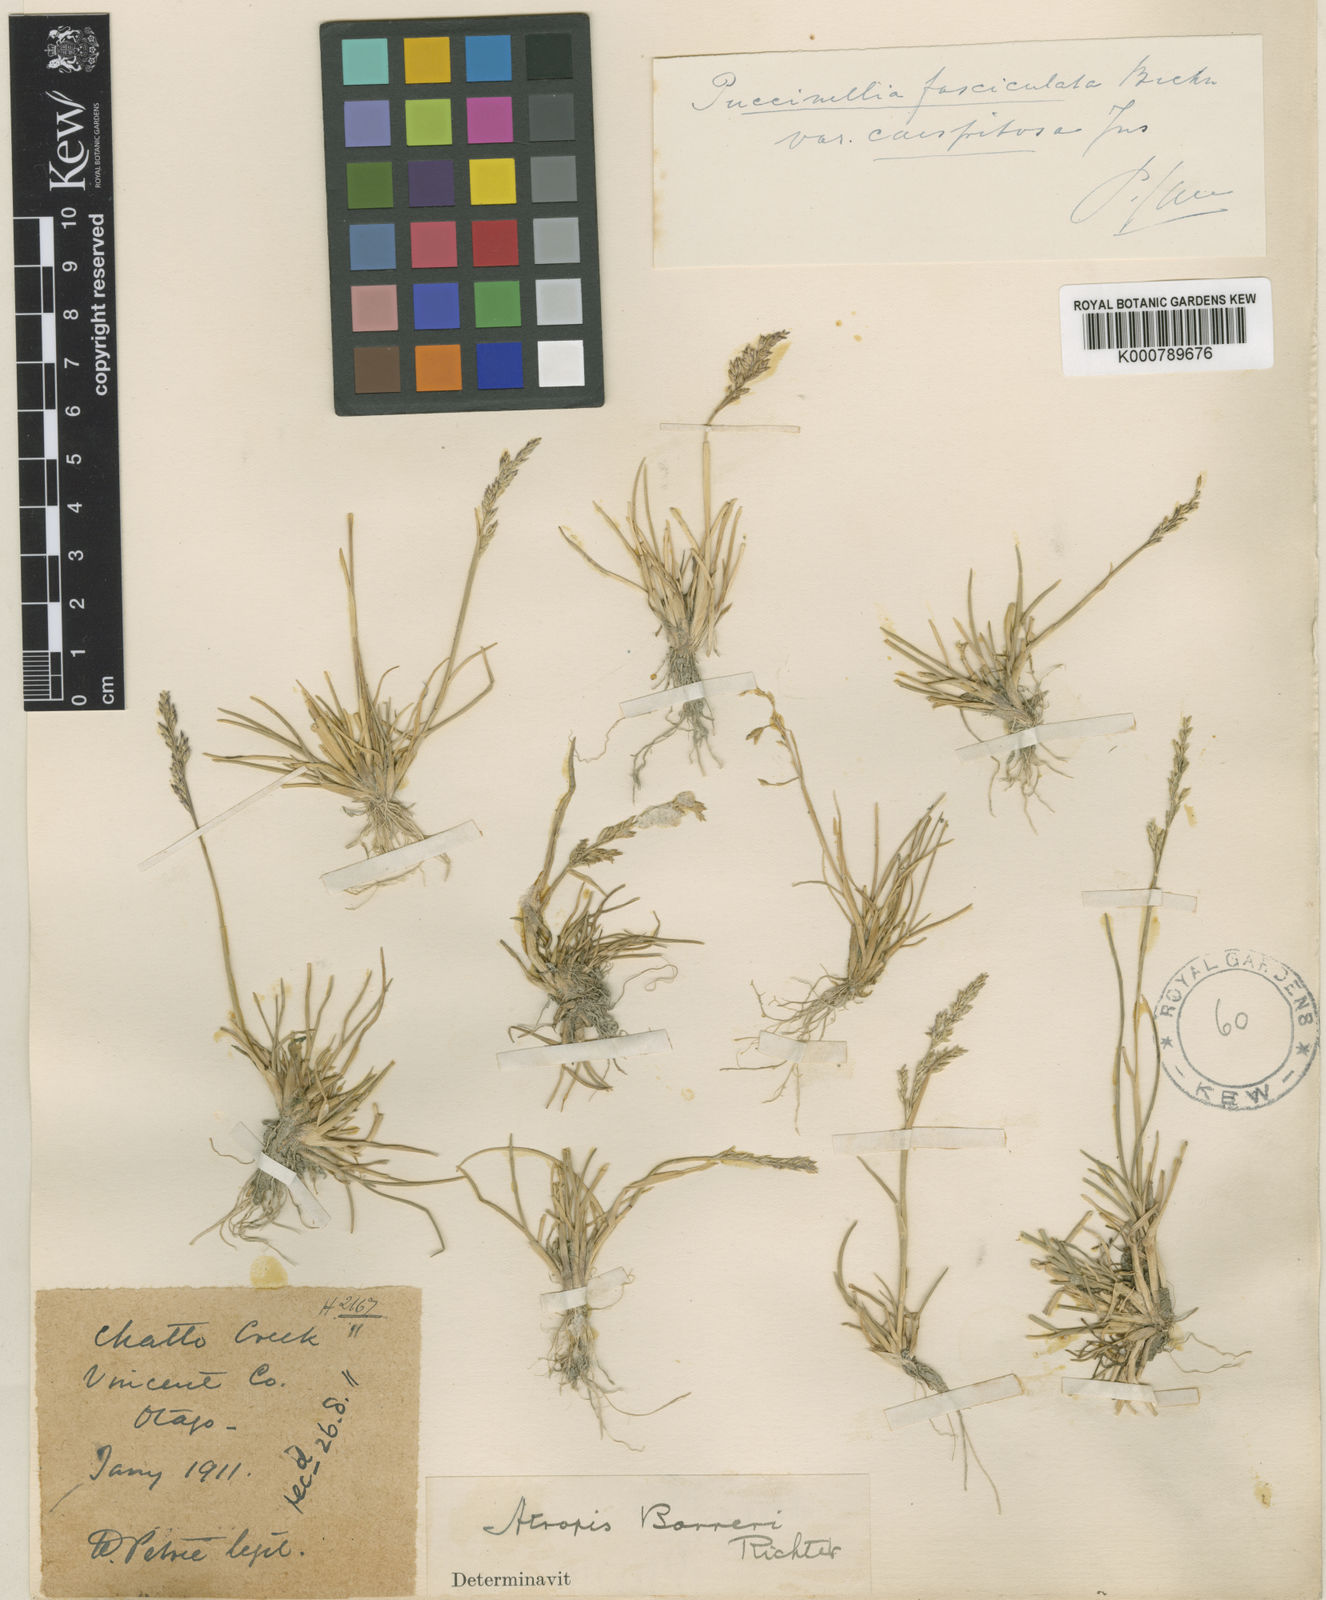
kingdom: Plantae
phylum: Tracheophyta
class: Liliopsida
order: Poales
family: Poaceae
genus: Puccinellia
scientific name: Puccinellia fasciculata
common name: Borrer's saltmarsh-grass
